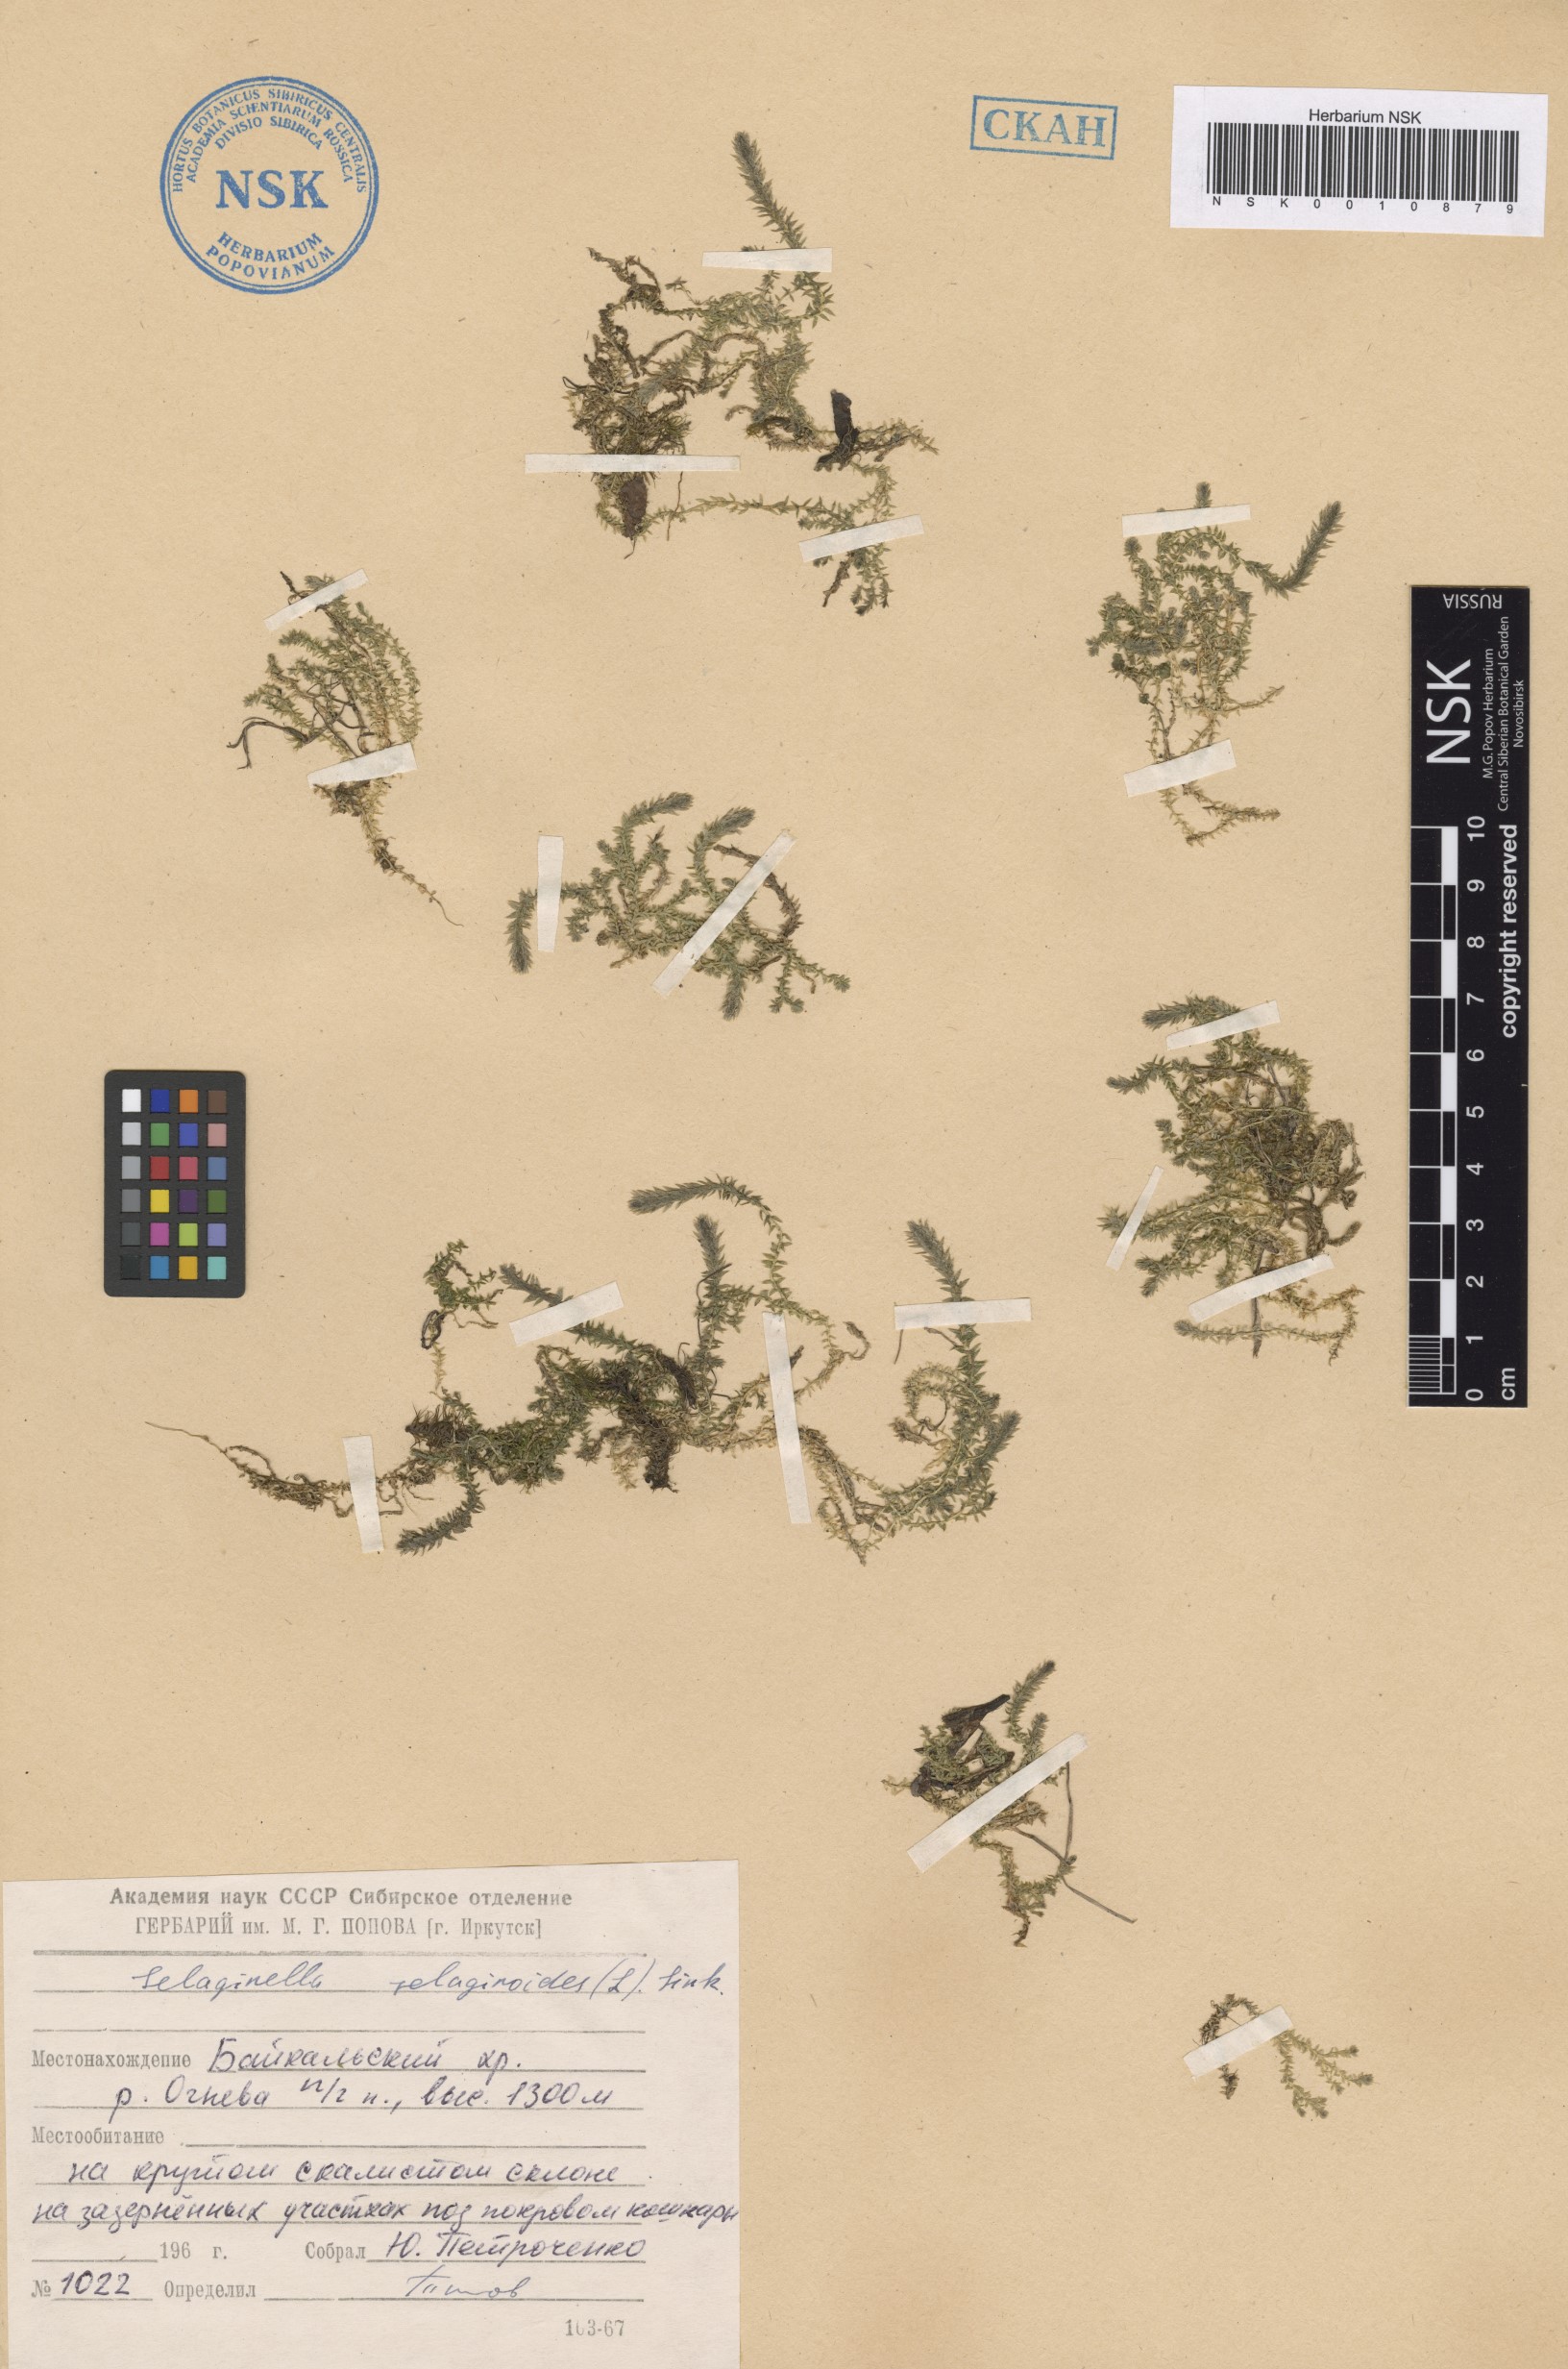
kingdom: Plantae
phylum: Tracheophyta
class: Lycopodiopsida
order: Selaginellales
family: Selaginellaceae
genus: Selaginella
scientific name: Selaginella selaginoides
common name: Prickly mountain-moss
